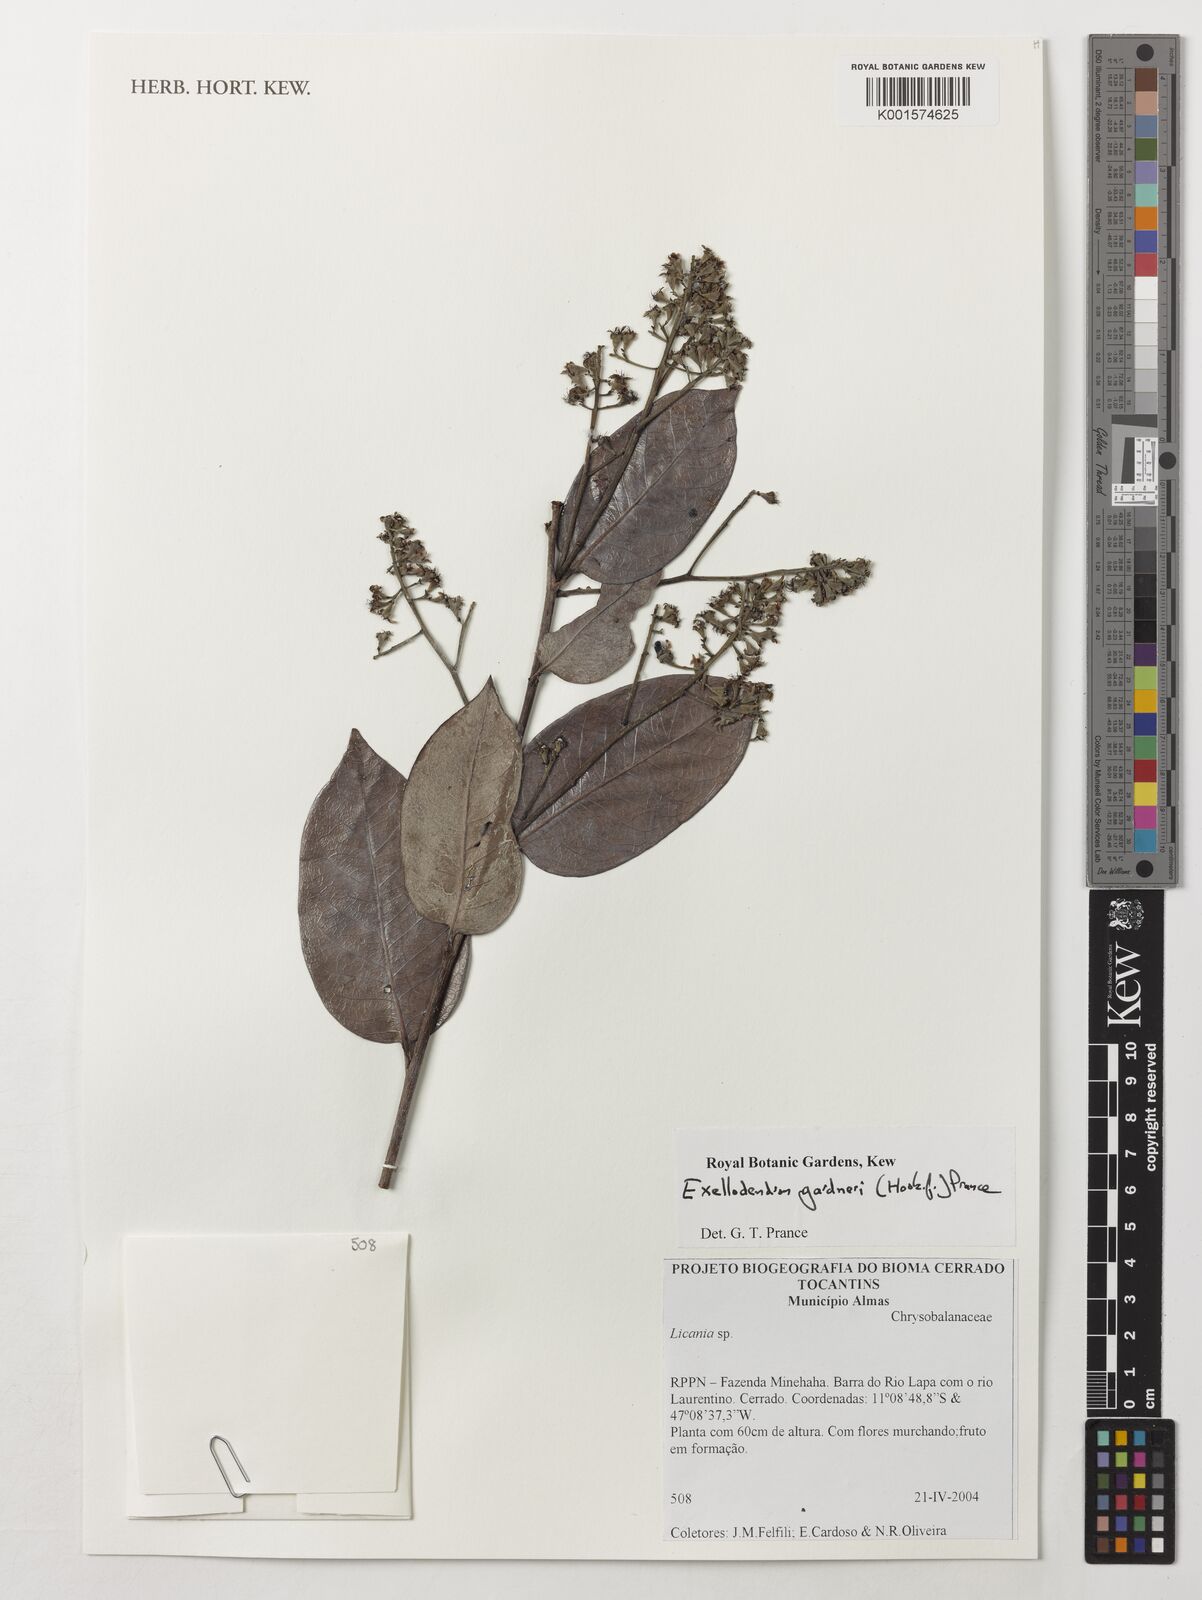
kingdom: Plantae
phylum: Tracheophyta
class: Magnoliopsida
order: Malpighiales
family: Chrysobalanaceae
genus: Exellodendron
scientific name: Exellodendron gardneri
